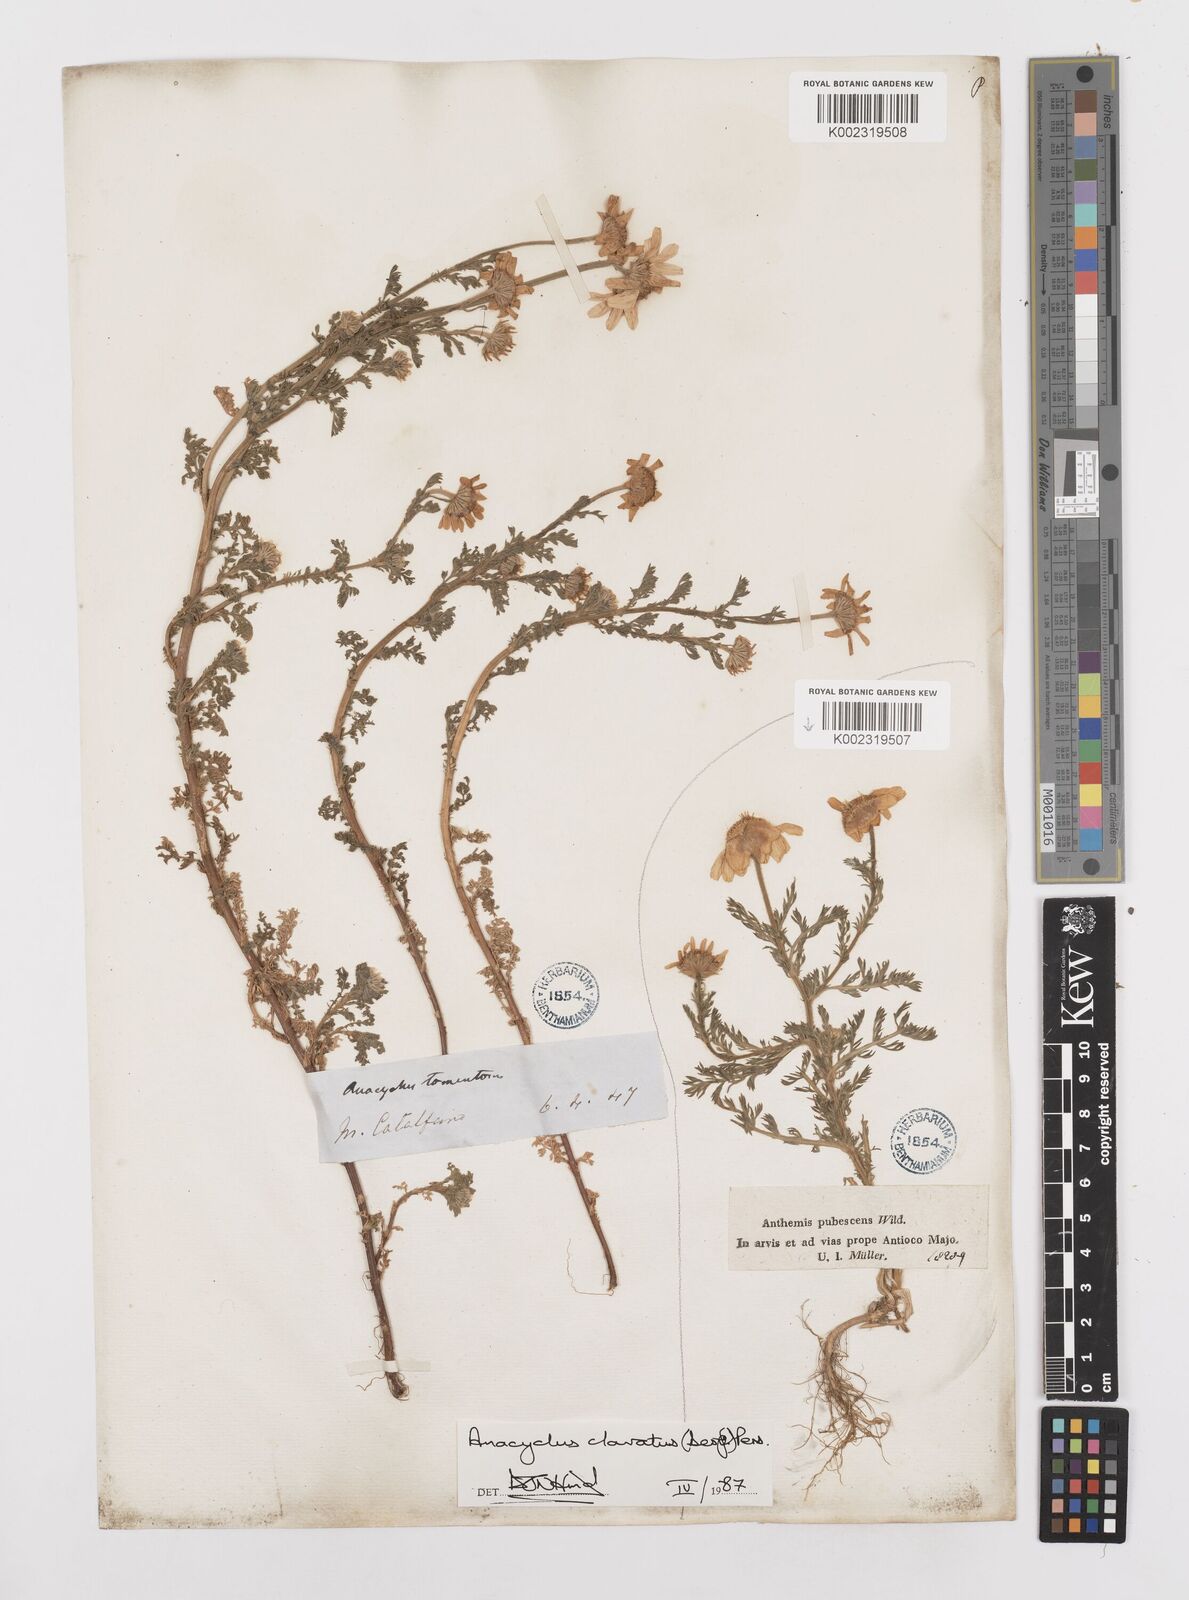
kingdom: Plantae
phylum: Tracheophyta
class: Magnoliopsida
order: Asterales
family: Asteraceae
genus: Anacyclus
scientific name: Anacyclus clavatus
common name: Whitebuttons
